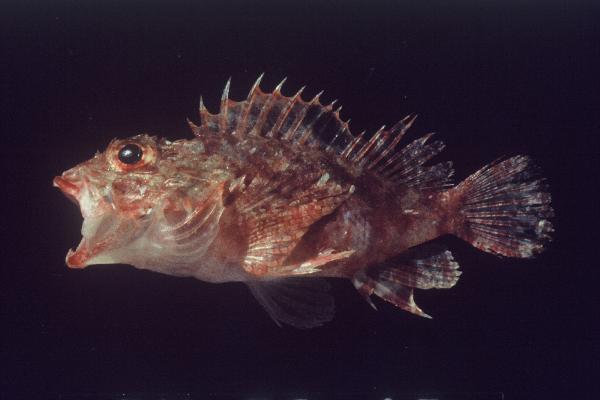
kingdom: Animalia
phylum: Chordata
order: Scorpaeniformes
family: Scorpaenidae
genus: Parascorpaena
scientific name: Parascorpaena mcadamsi
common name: Ocellated scorpionfish
